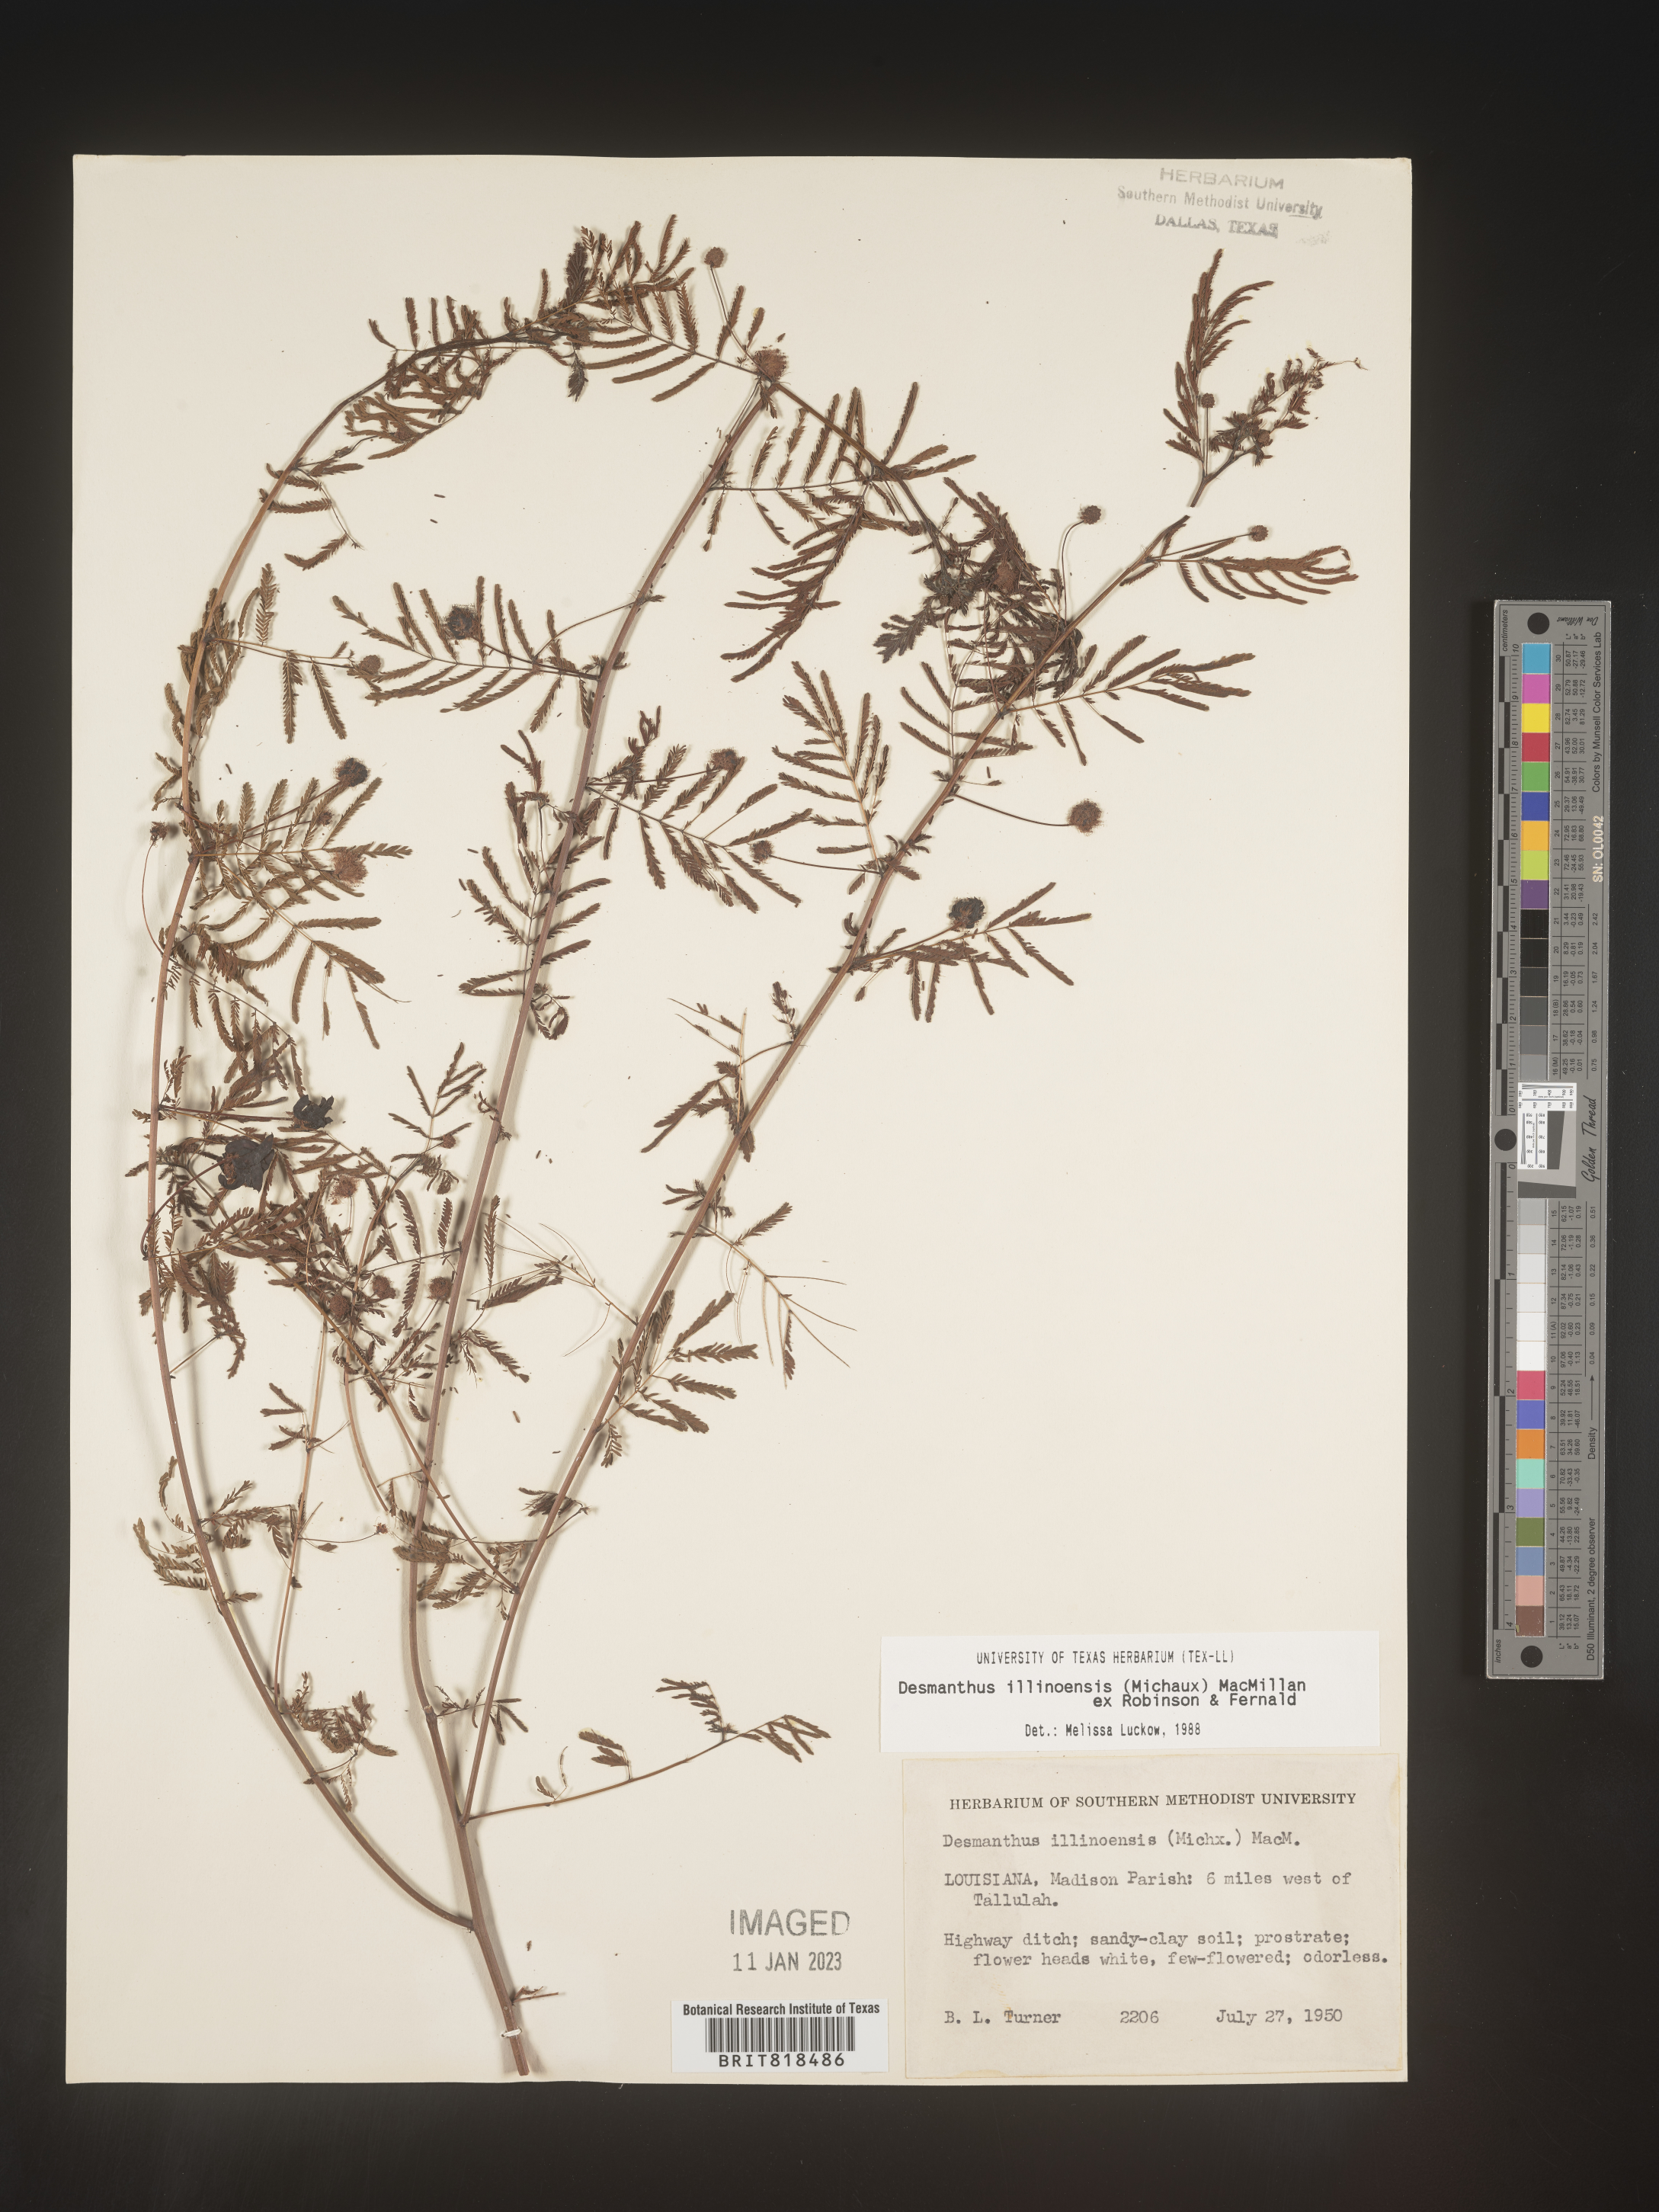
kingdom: Plantae
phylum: Tracheophyta
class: Magnoliopsida
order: Fabales
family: Fabaceae
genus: Desmanthus
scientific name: Desmanthus illinoensis
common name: Illinois bundle-flower
